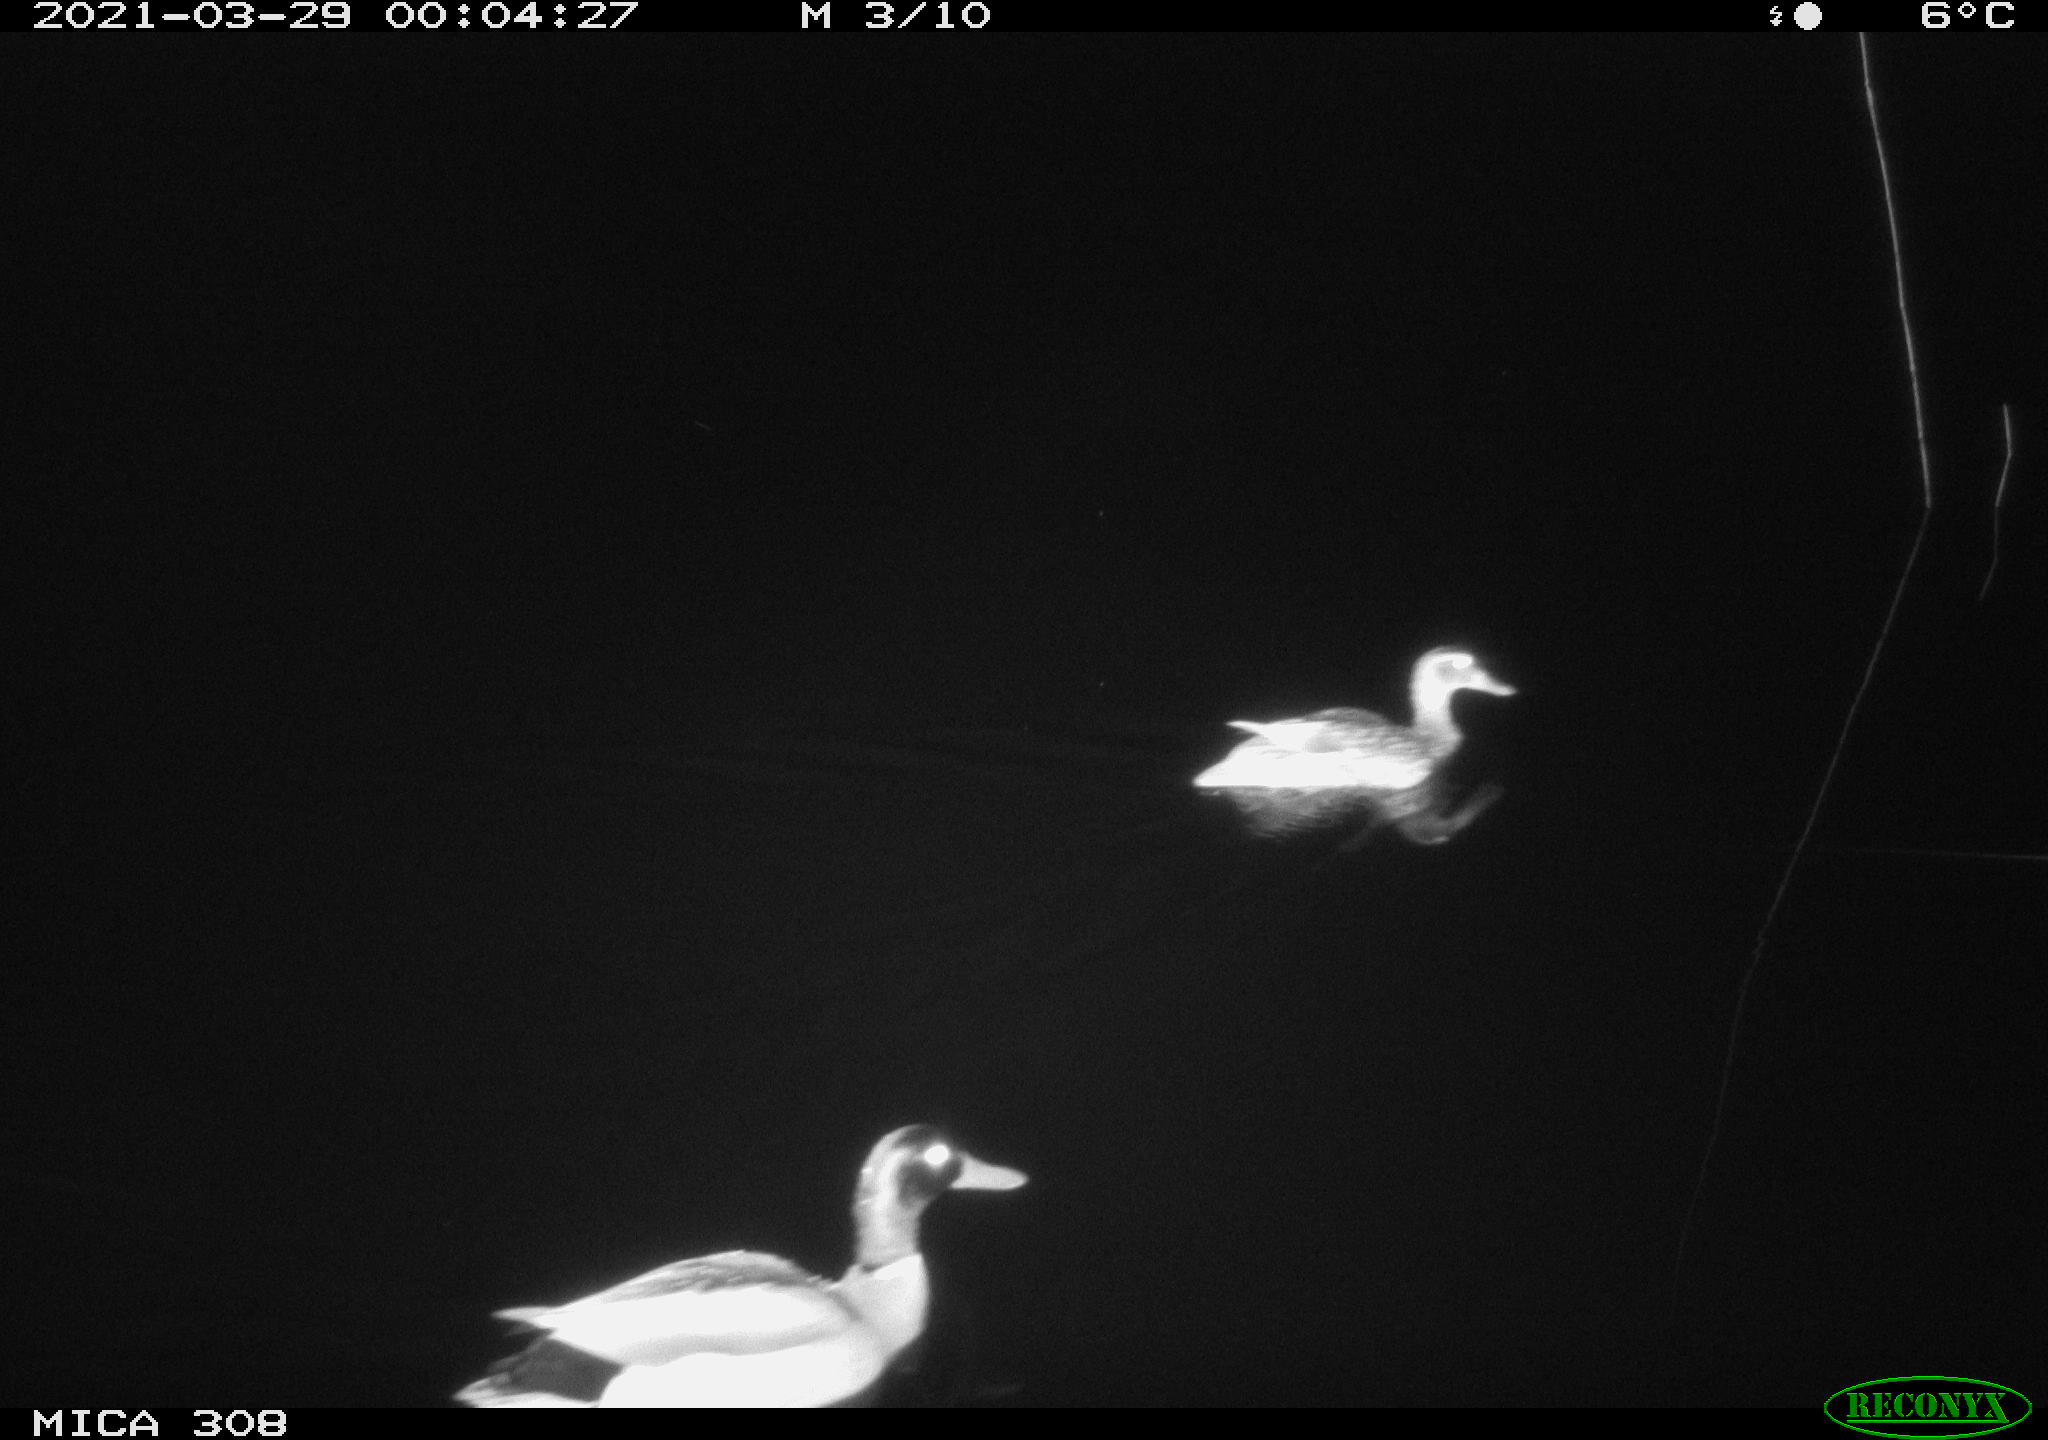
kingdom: Animalia
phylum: Chordata
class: Aves
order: Anseriformes
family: Anatidae
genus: Anas
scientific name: Anas platyrhynchos
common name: Mallard
